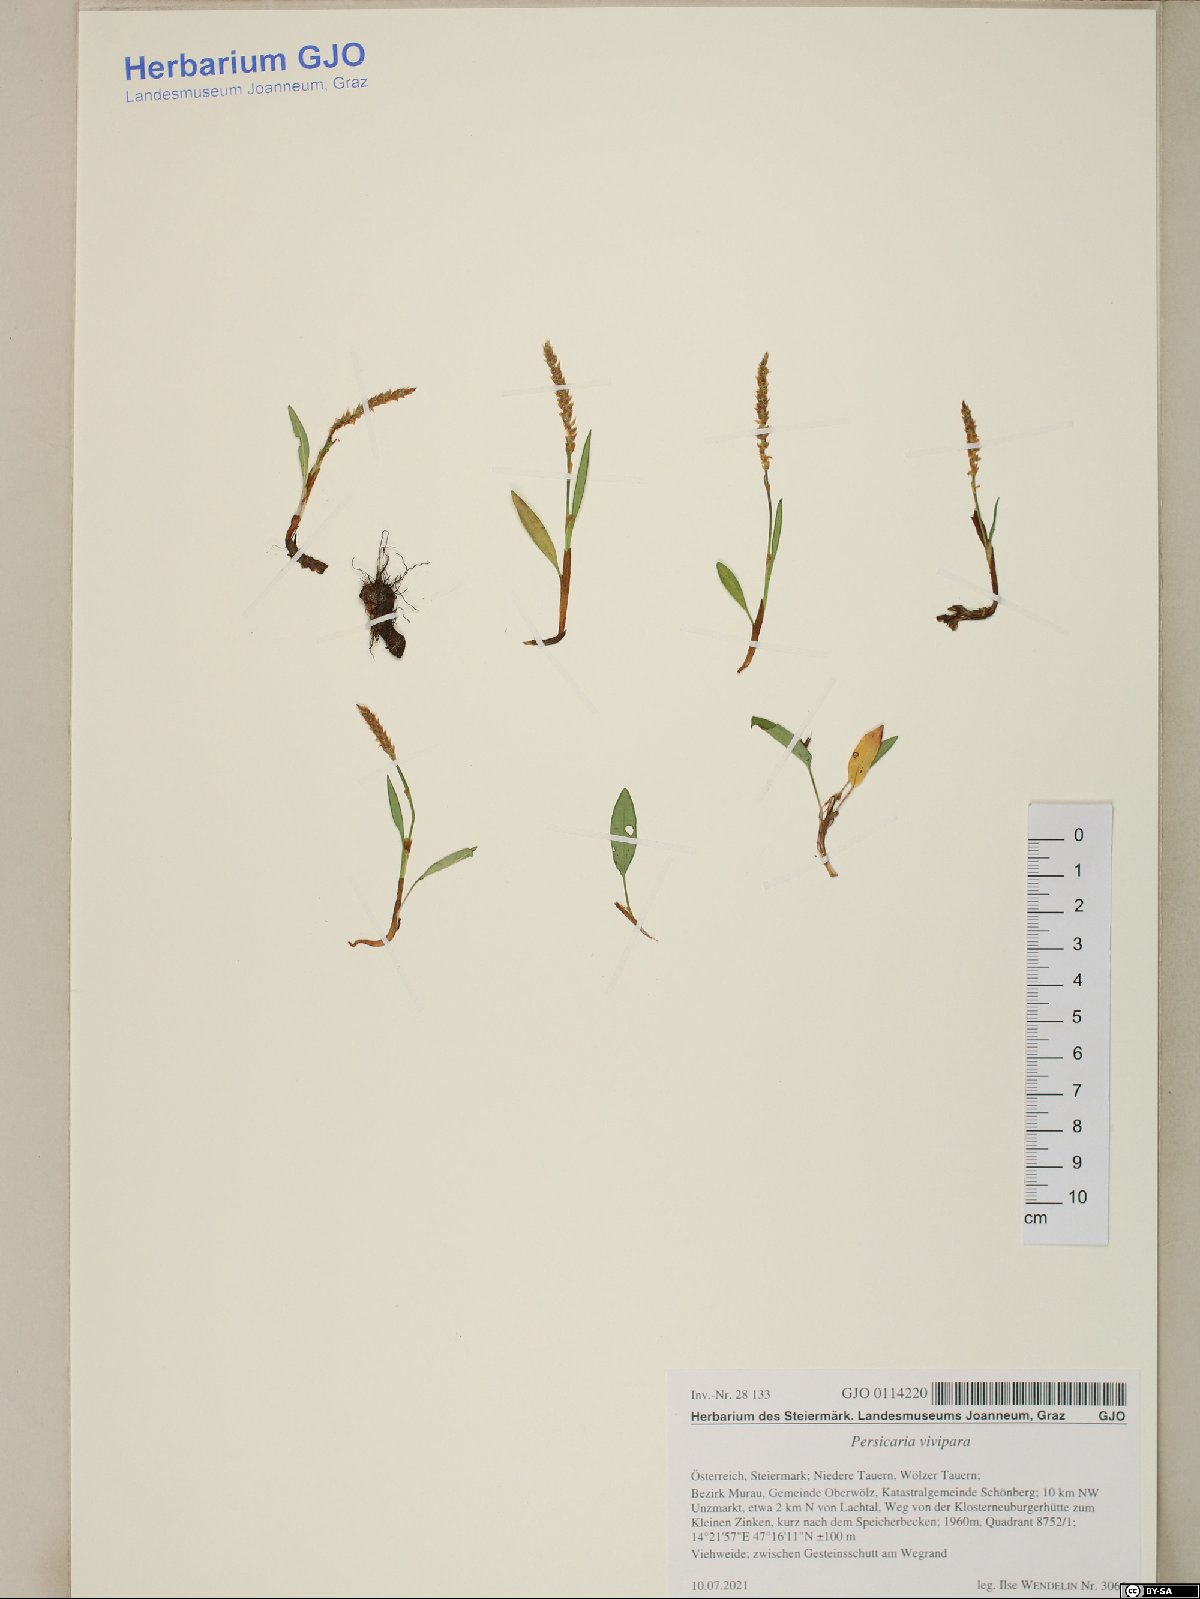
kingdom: Plantae
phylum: Tracheophyta
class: Magnoliopsida
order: Caryophyllales
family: Polygonaceae
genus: Bistorta
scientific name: Bistorta vivipara
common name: Alpine bistort
